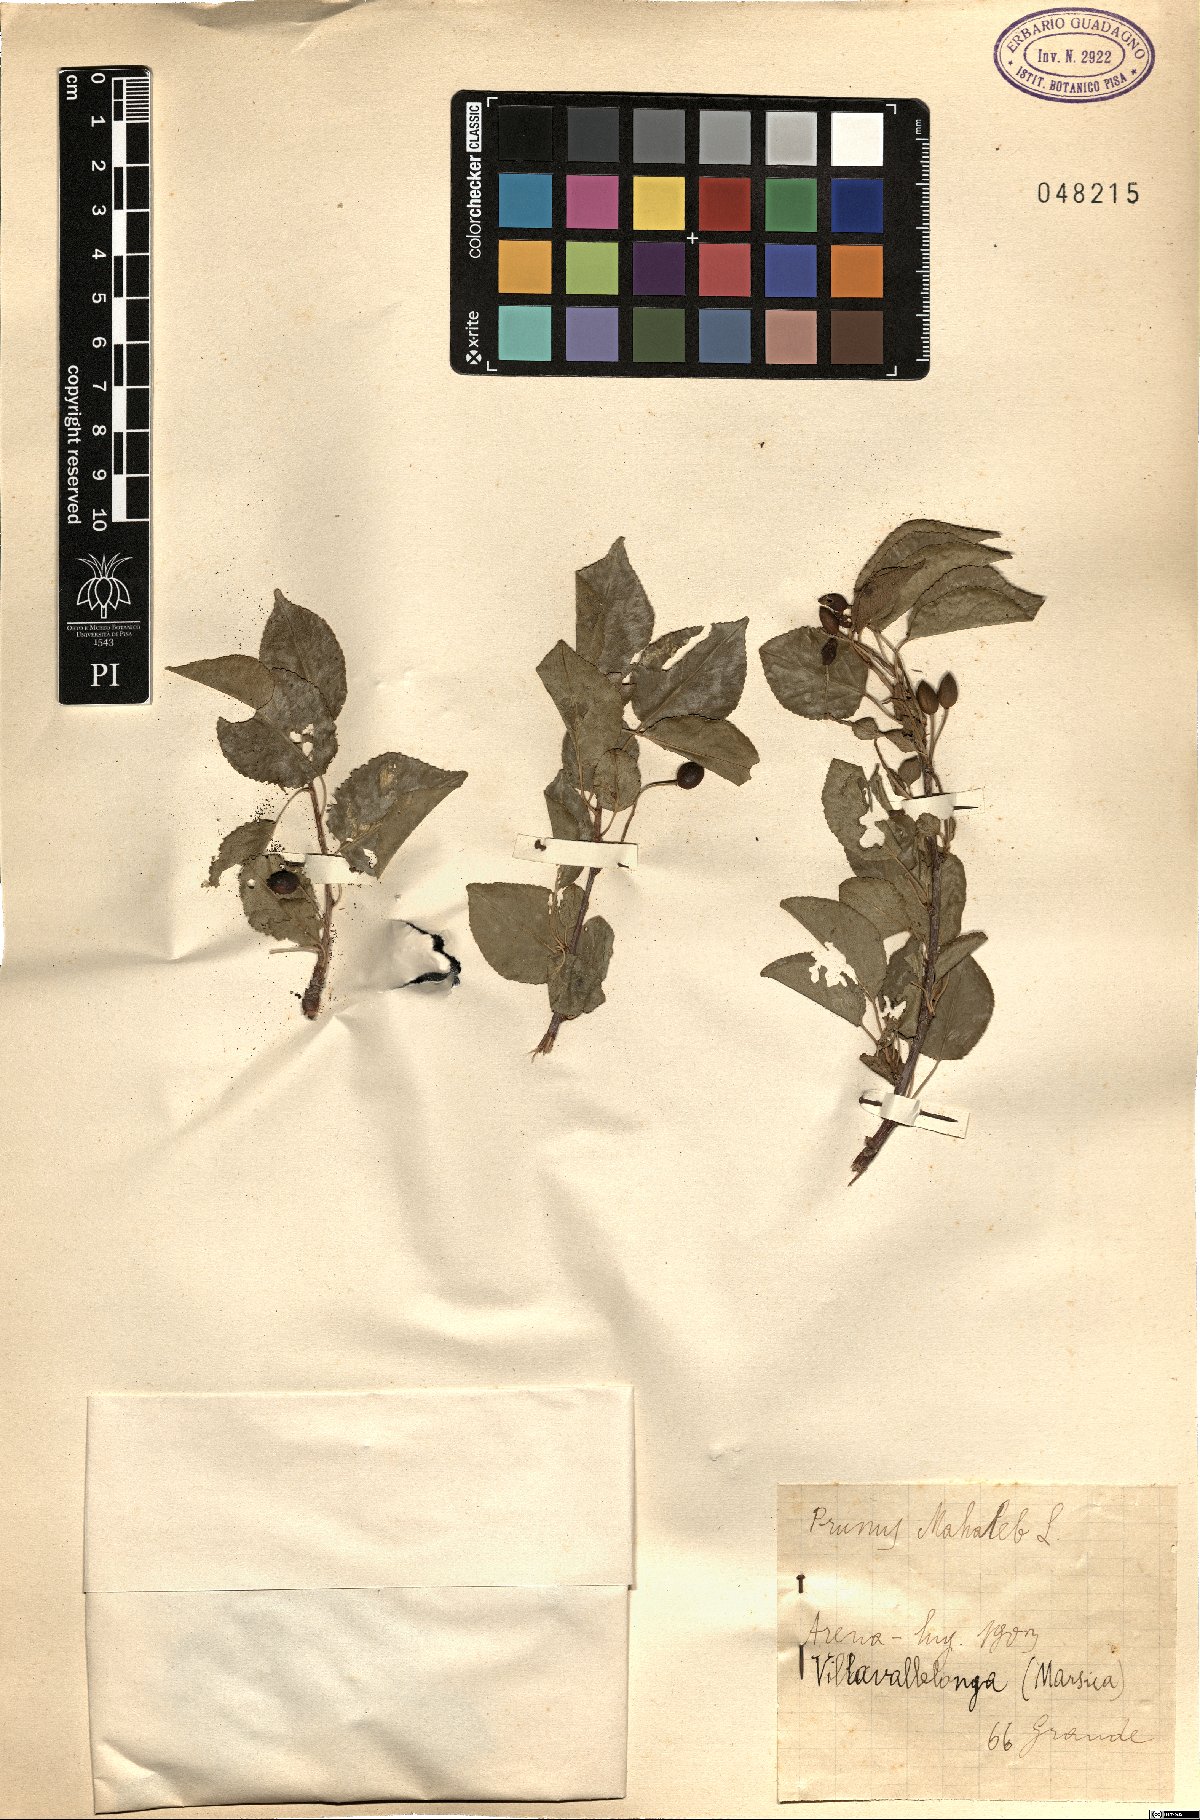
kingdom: Plantae
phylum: Tracheophyta
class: Magnoliopsida
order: Rosales
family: Rosaceae
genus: Prunus
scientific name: Prunus mahaleb
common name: Mahaleb cherry
